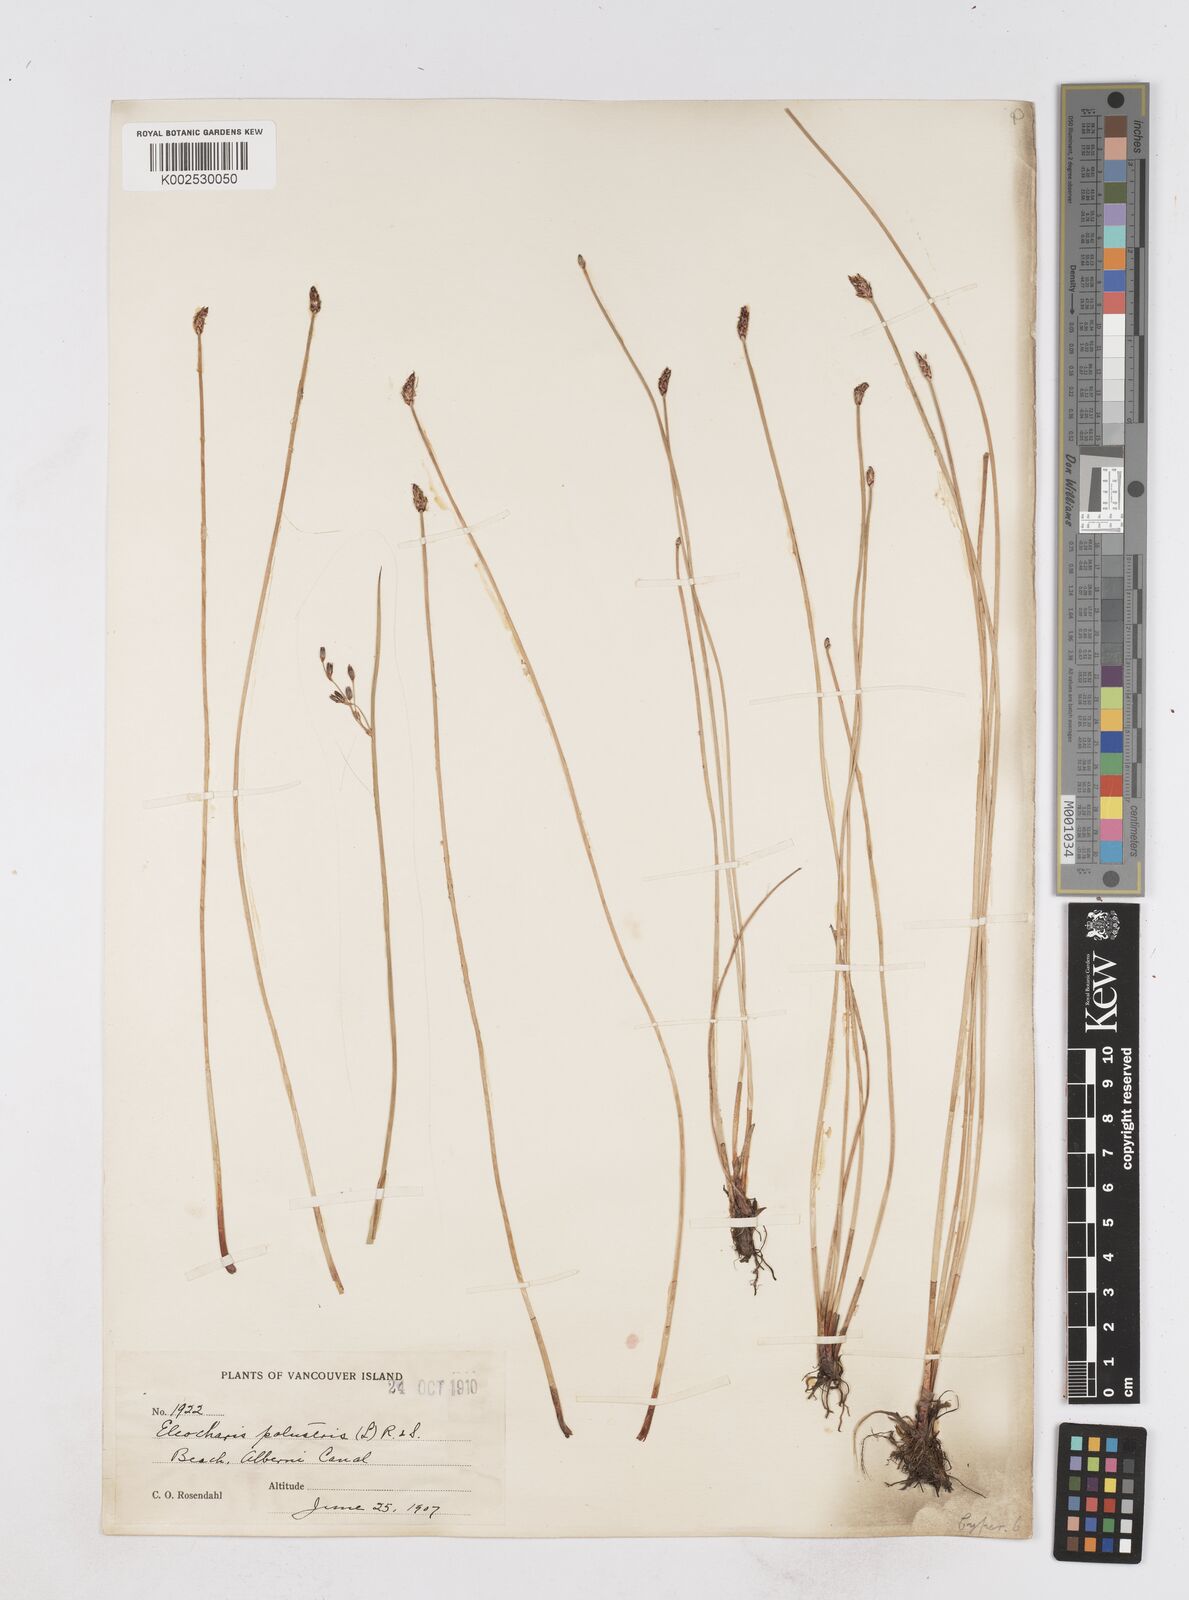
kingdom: Plantae
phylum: Tracheophyta
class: Liliopsida
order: Poales
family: Cyperaceae
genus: Eleocharis
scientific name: Eleocharis palustris
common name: Common spike-rush
